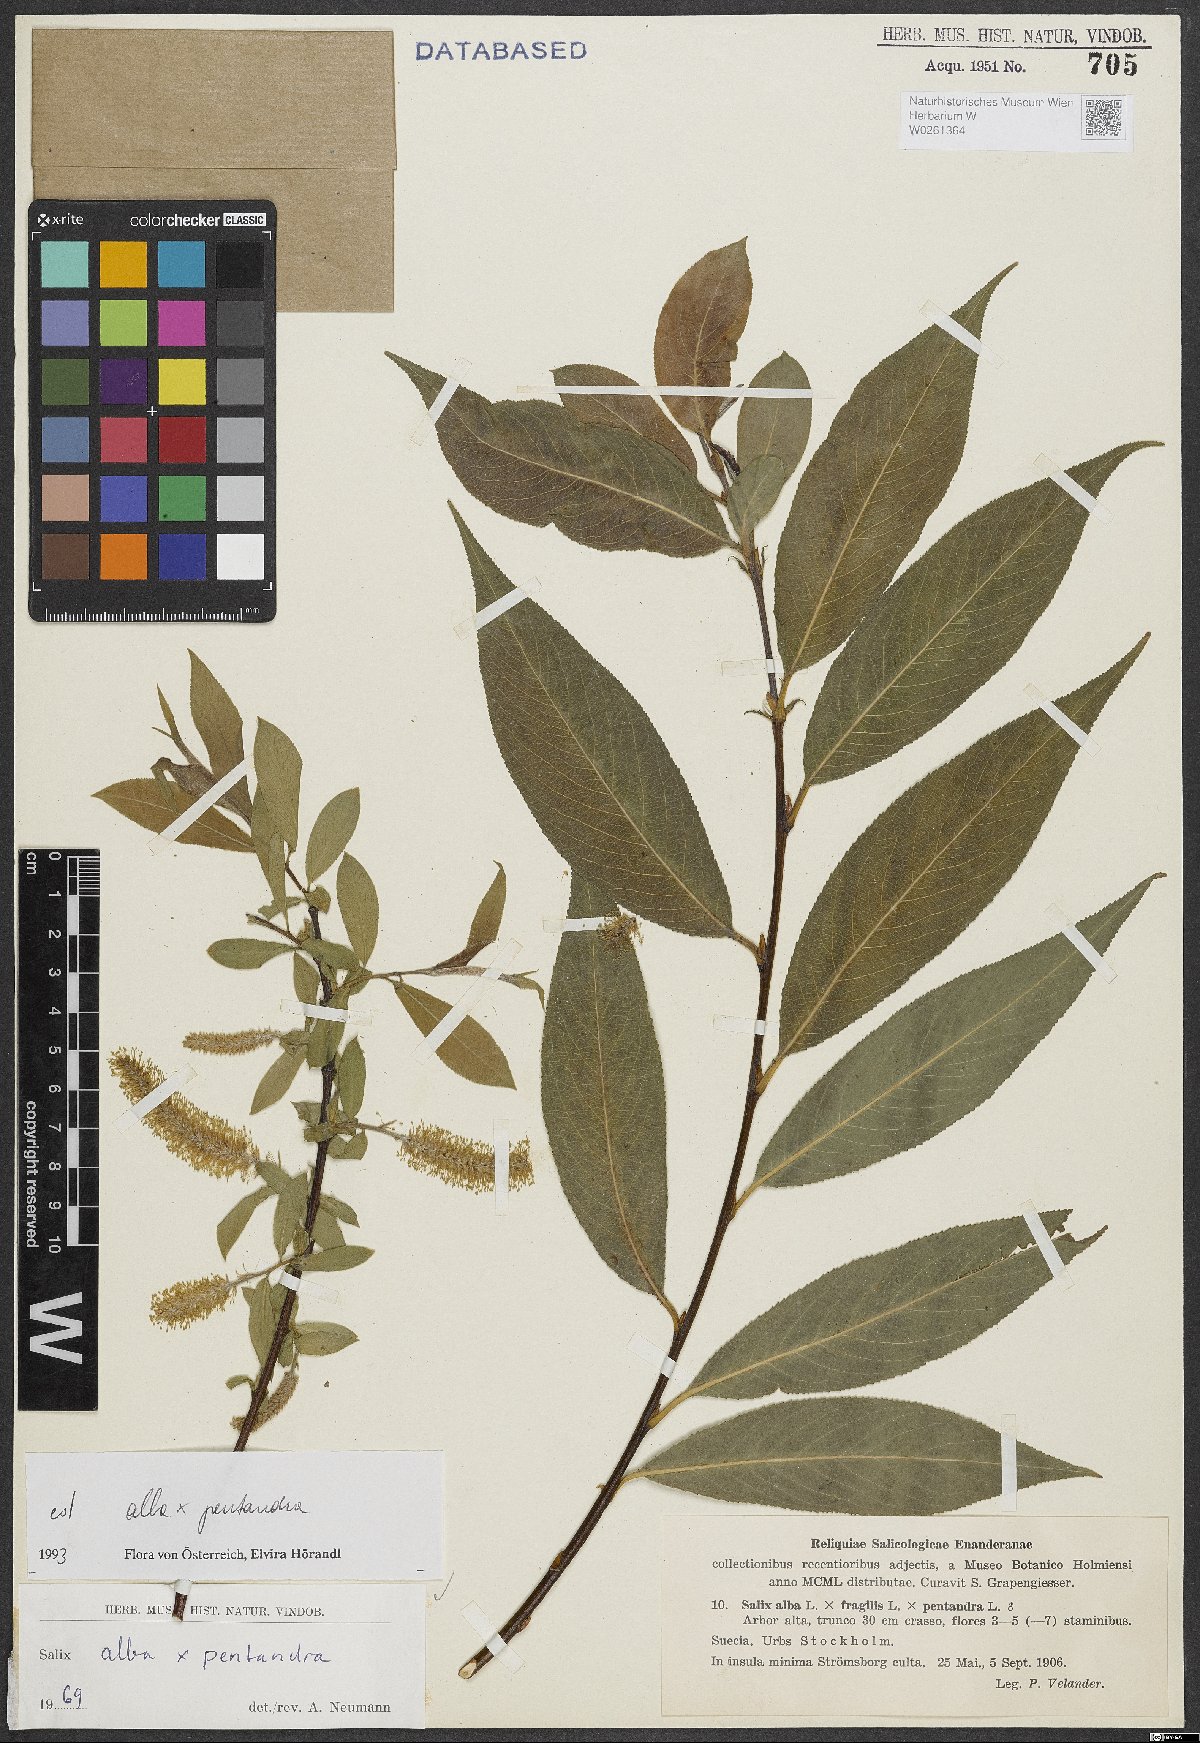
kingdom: Plantae
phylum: Tracheophyta
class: Magnoliopsida
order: Malpighiales
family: Salicaceae
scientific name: Salicaceae
